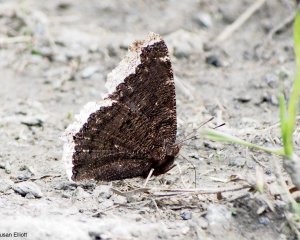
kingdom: Animalia
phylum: Arthropoda
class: Insecta
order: Lepidoptera
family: Nymphalidae
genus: Nymphalis
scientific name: Nymphalis antiopa
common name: Mourning Cloak
